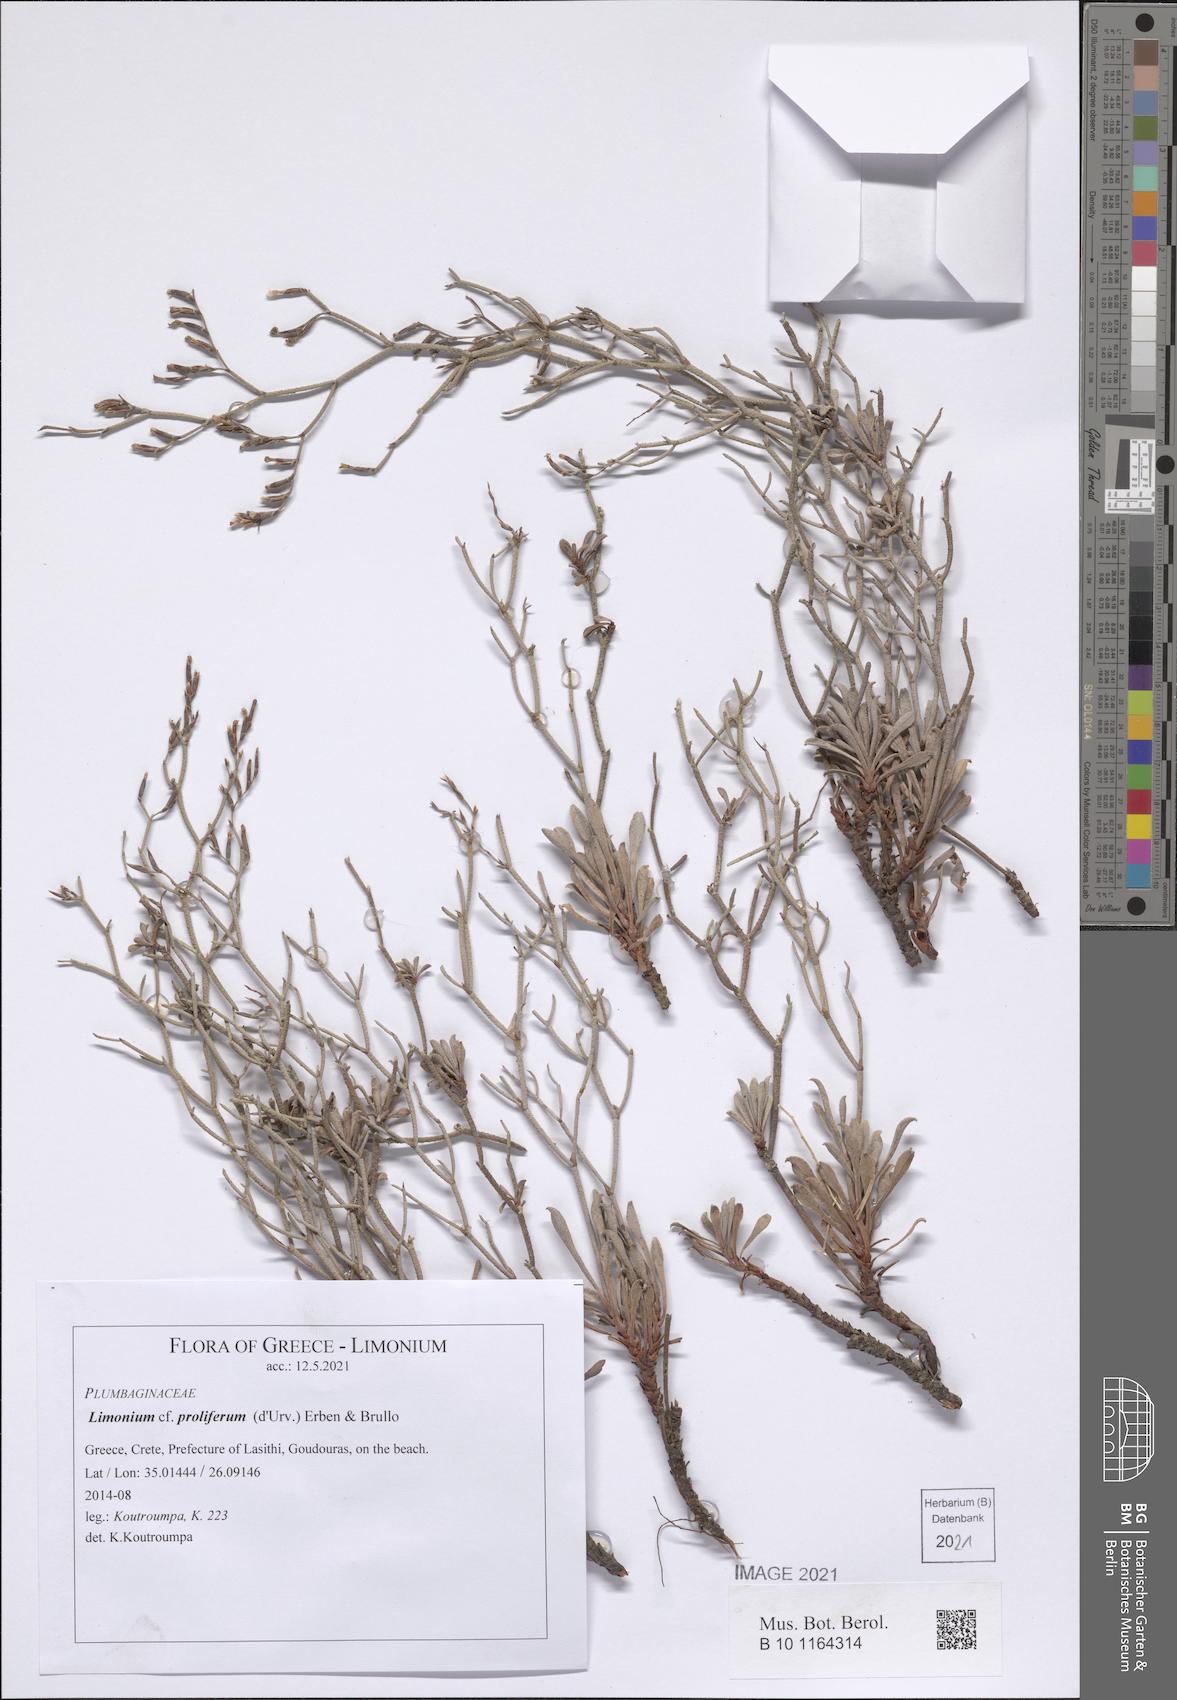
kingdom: Plantae
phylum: Tracheophyta
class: Magnoliopsida
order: Caryophyllales
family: Plumbaginaceae
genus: Limonium
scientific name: Limonium proliferum
